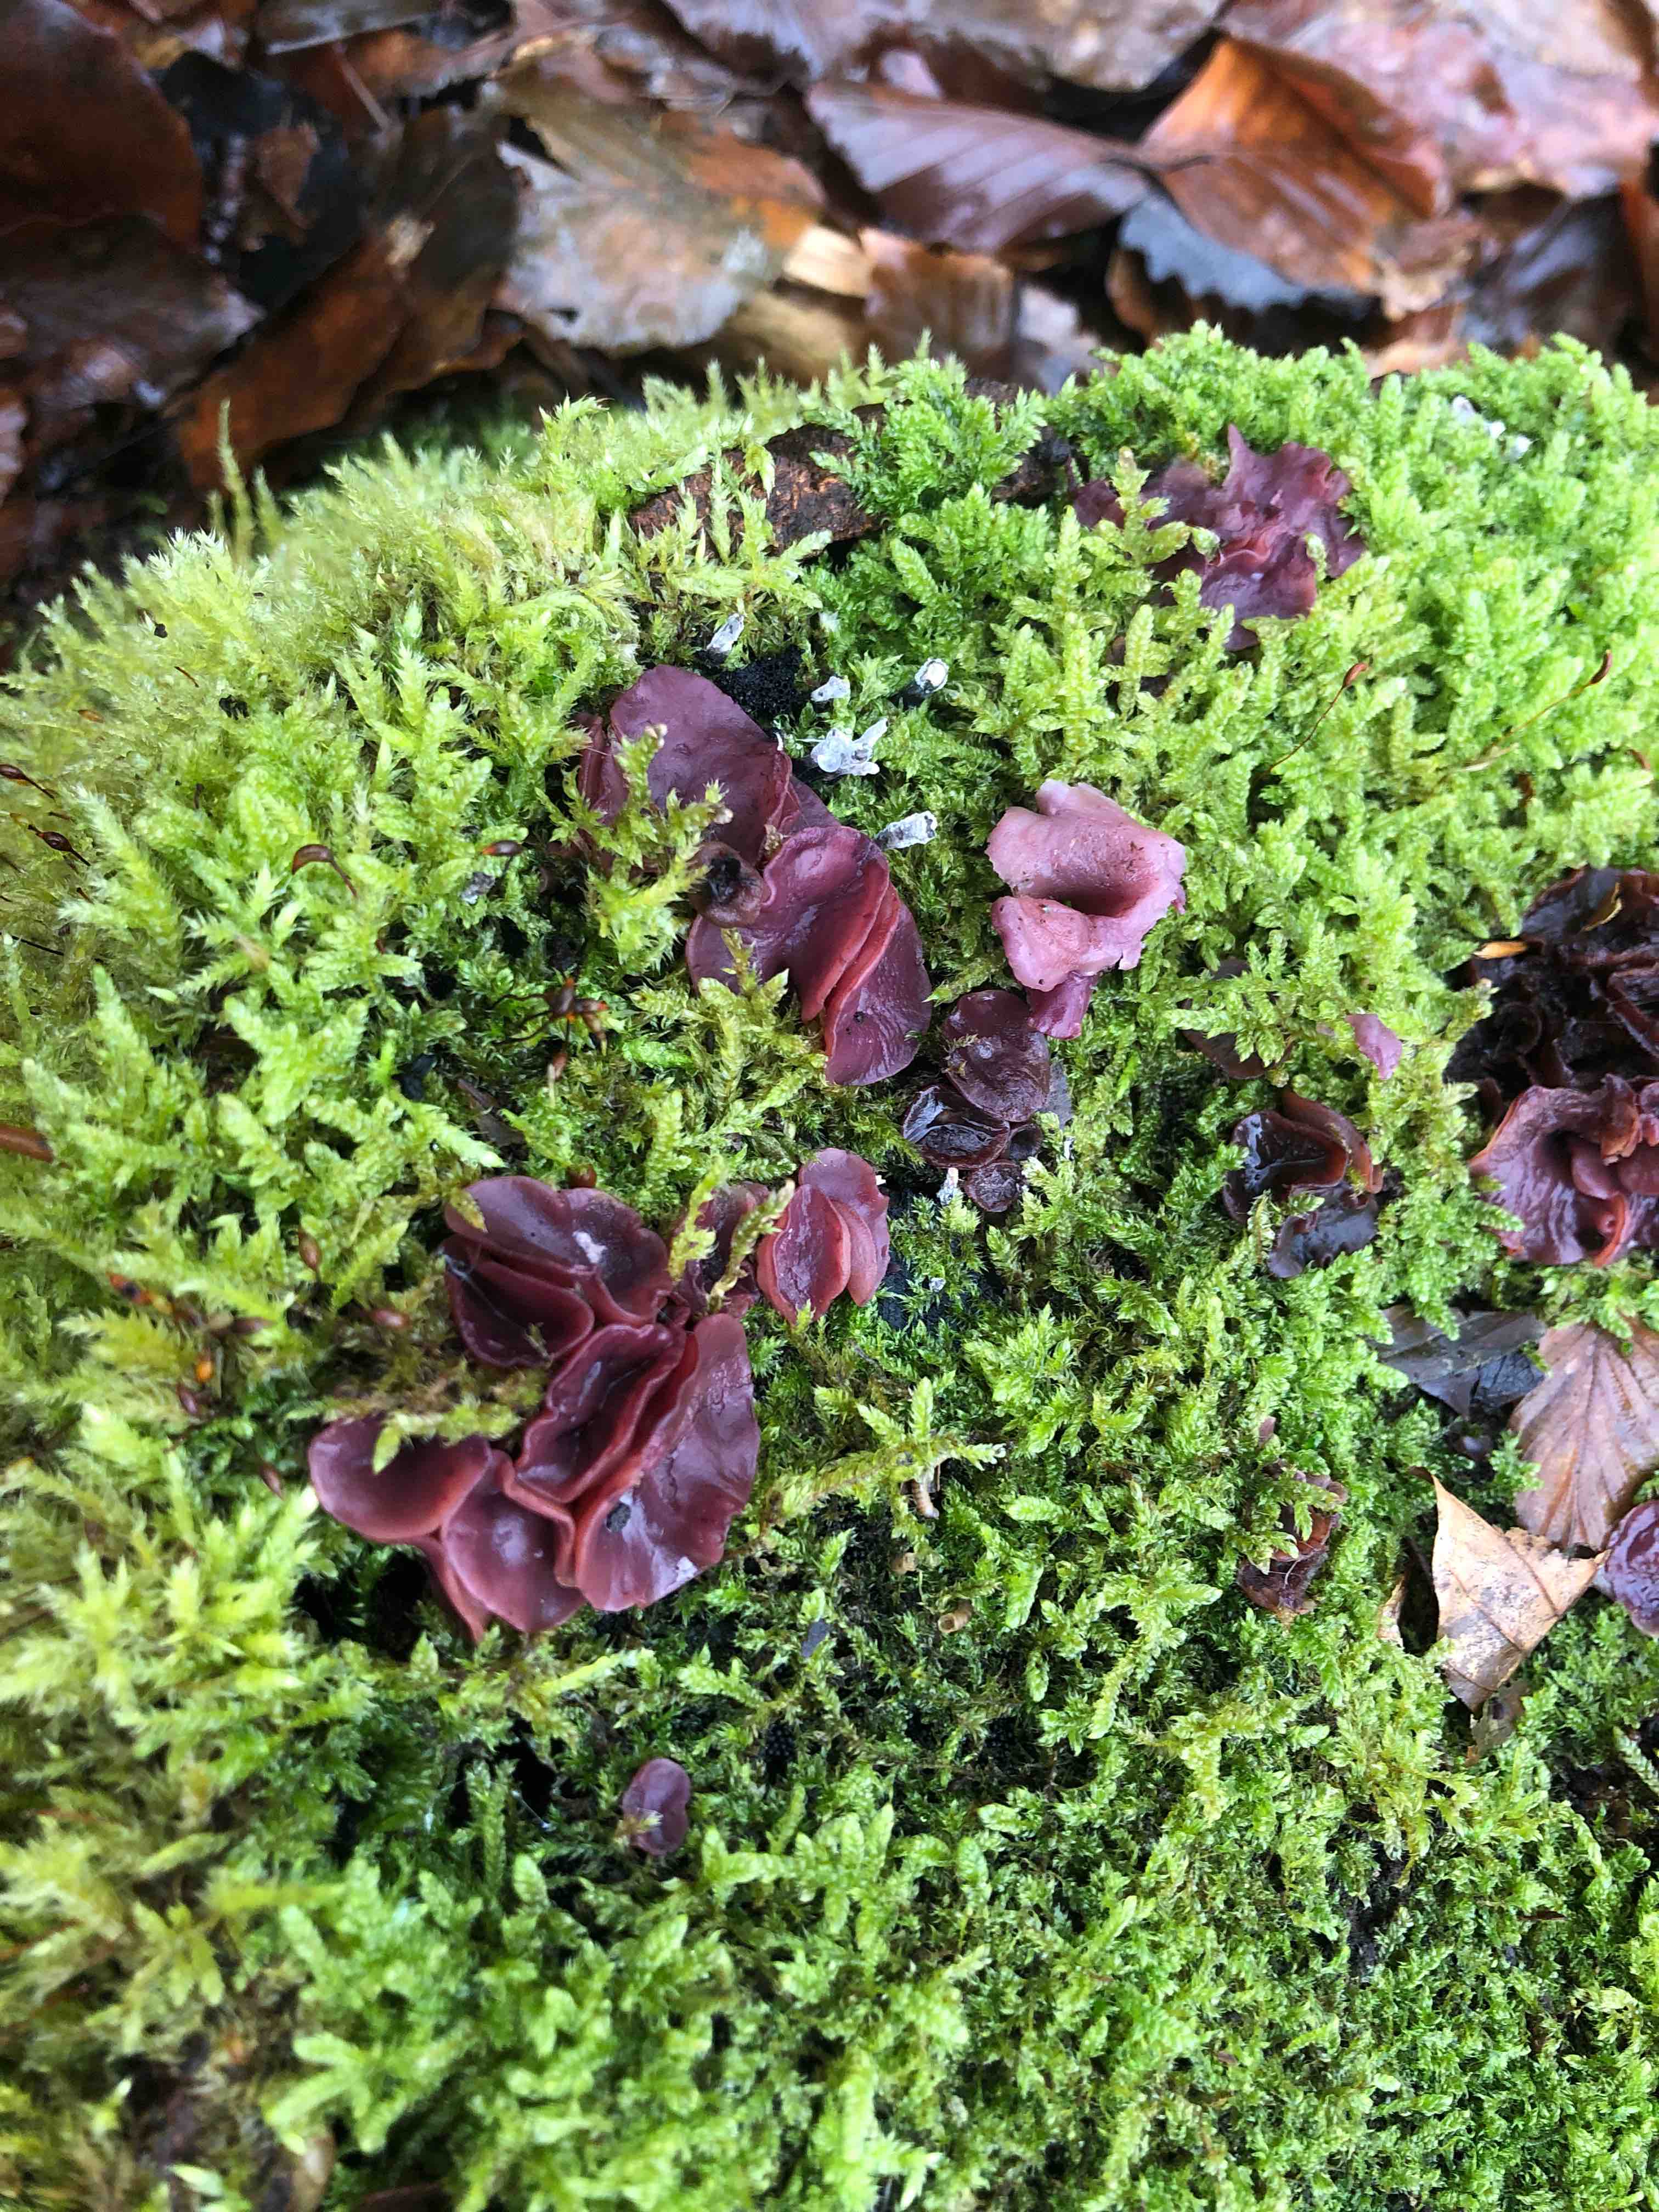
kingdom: Fungi
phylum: Ascomycota
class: Leotiomycetes
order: Helotiales
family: Gelatinodiscaceae
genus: Ascocoryne
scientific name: Ascocoryne cylichnium
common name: stor sejskive
